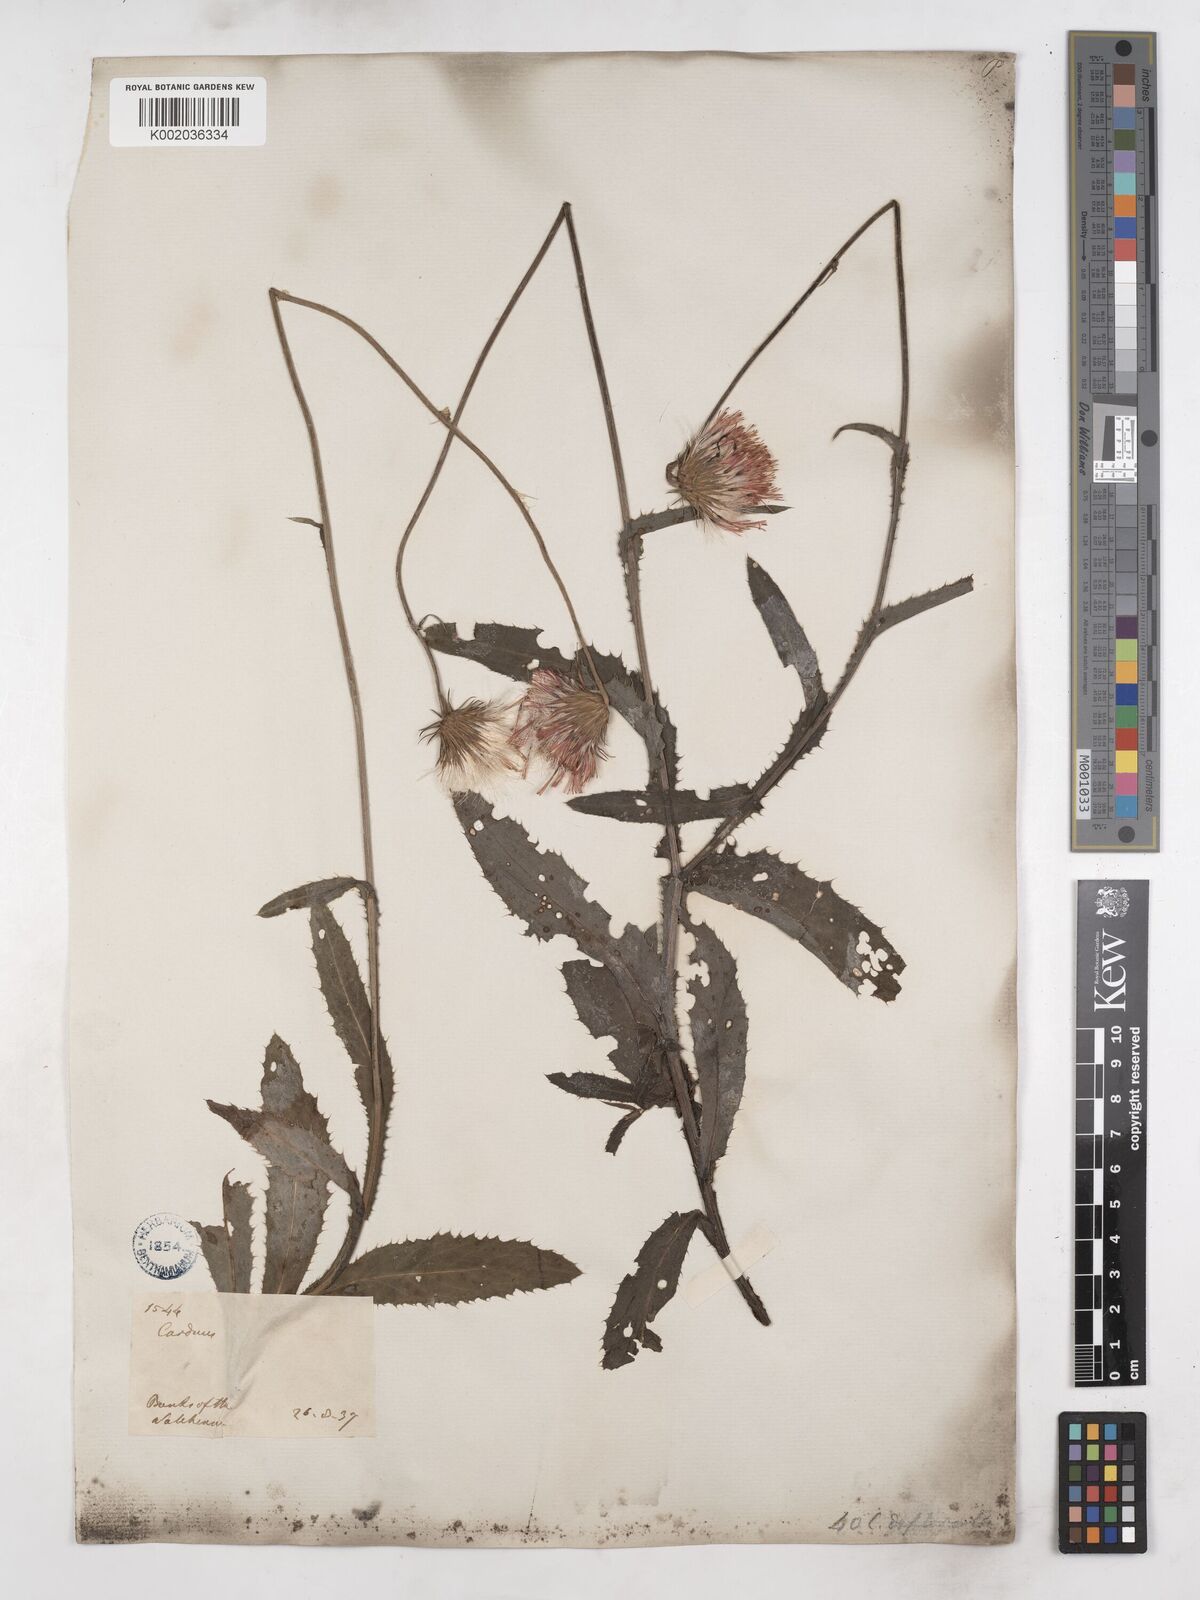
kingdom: Plantae
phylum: Tracheophyta
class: Magnoliopsida
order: Asterales
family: Asteraceae
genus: Carduus
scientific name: Carduus defloratus
